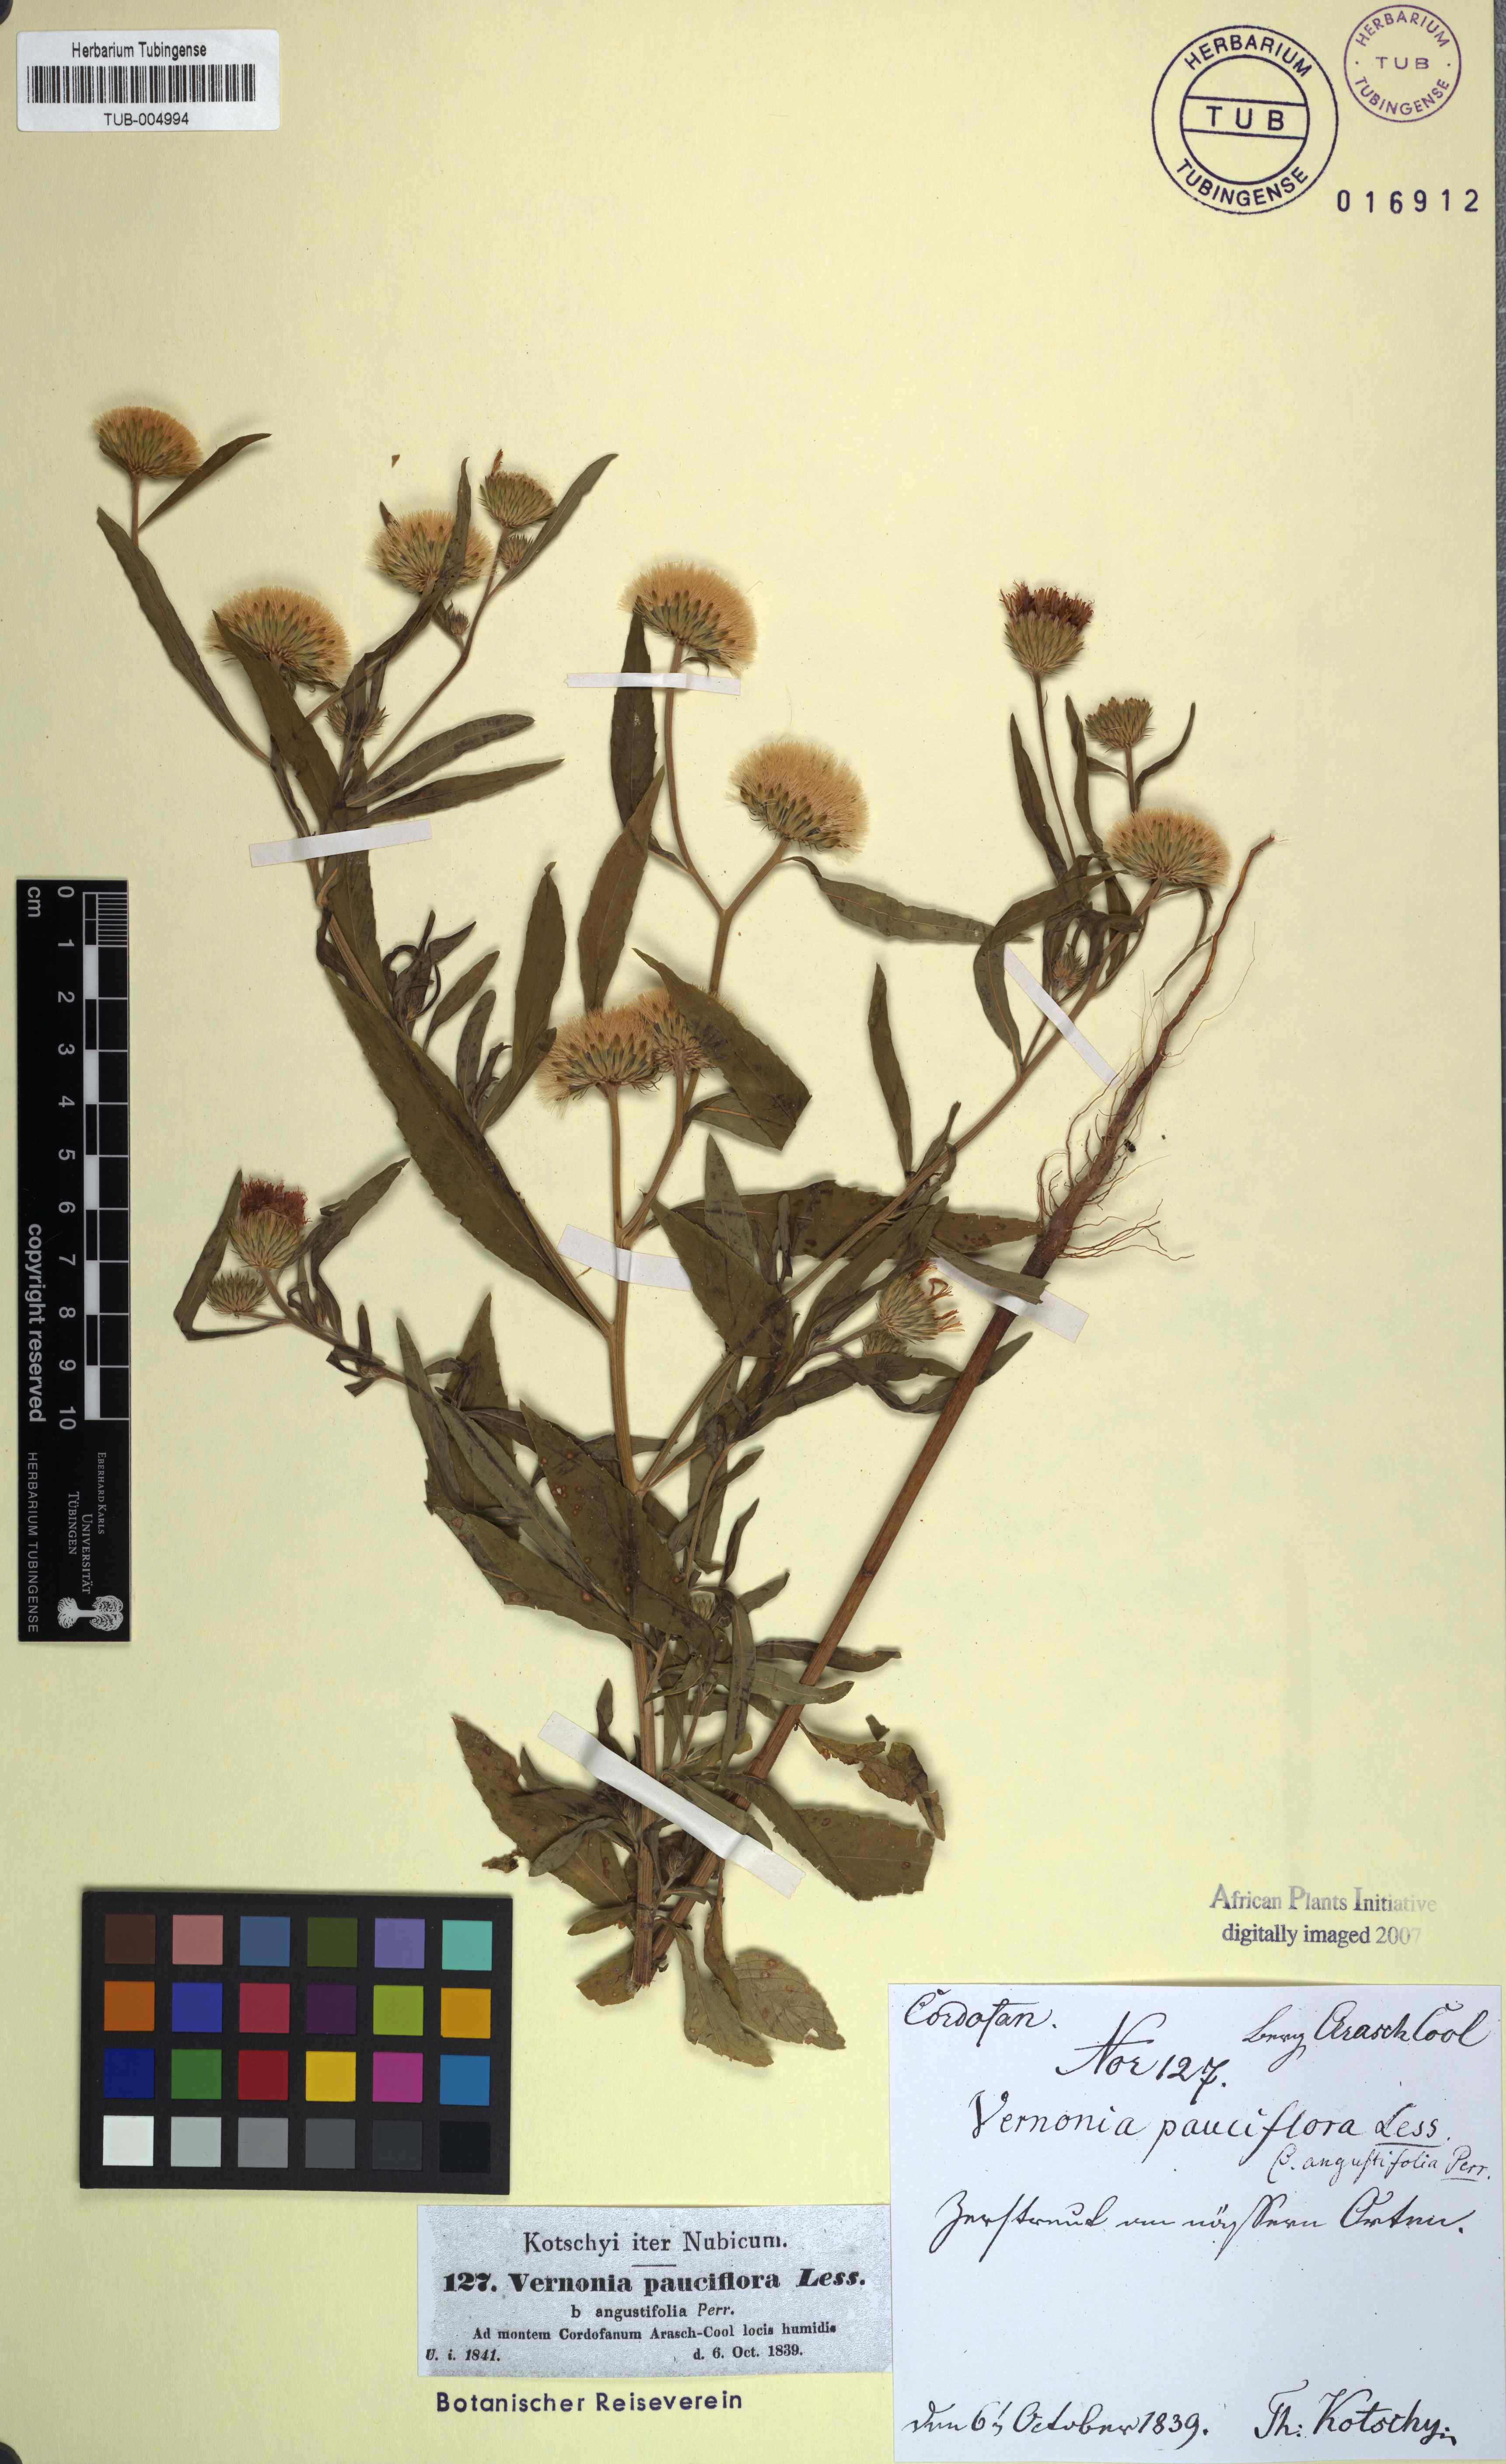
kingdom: Plantae
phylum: Tracheophyta
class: Magnoliopsida
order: Asterales
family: Asteraceae
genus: Vernonia
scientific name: Vernonia galamensis
